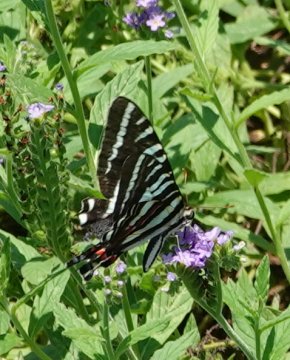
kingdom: Animalia
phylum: Arthropoda
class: Insecta
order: Lepidoptera
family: Papilionidae
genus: Protographium
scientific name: Protographium marcellus
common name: Zebra Swallowtail
